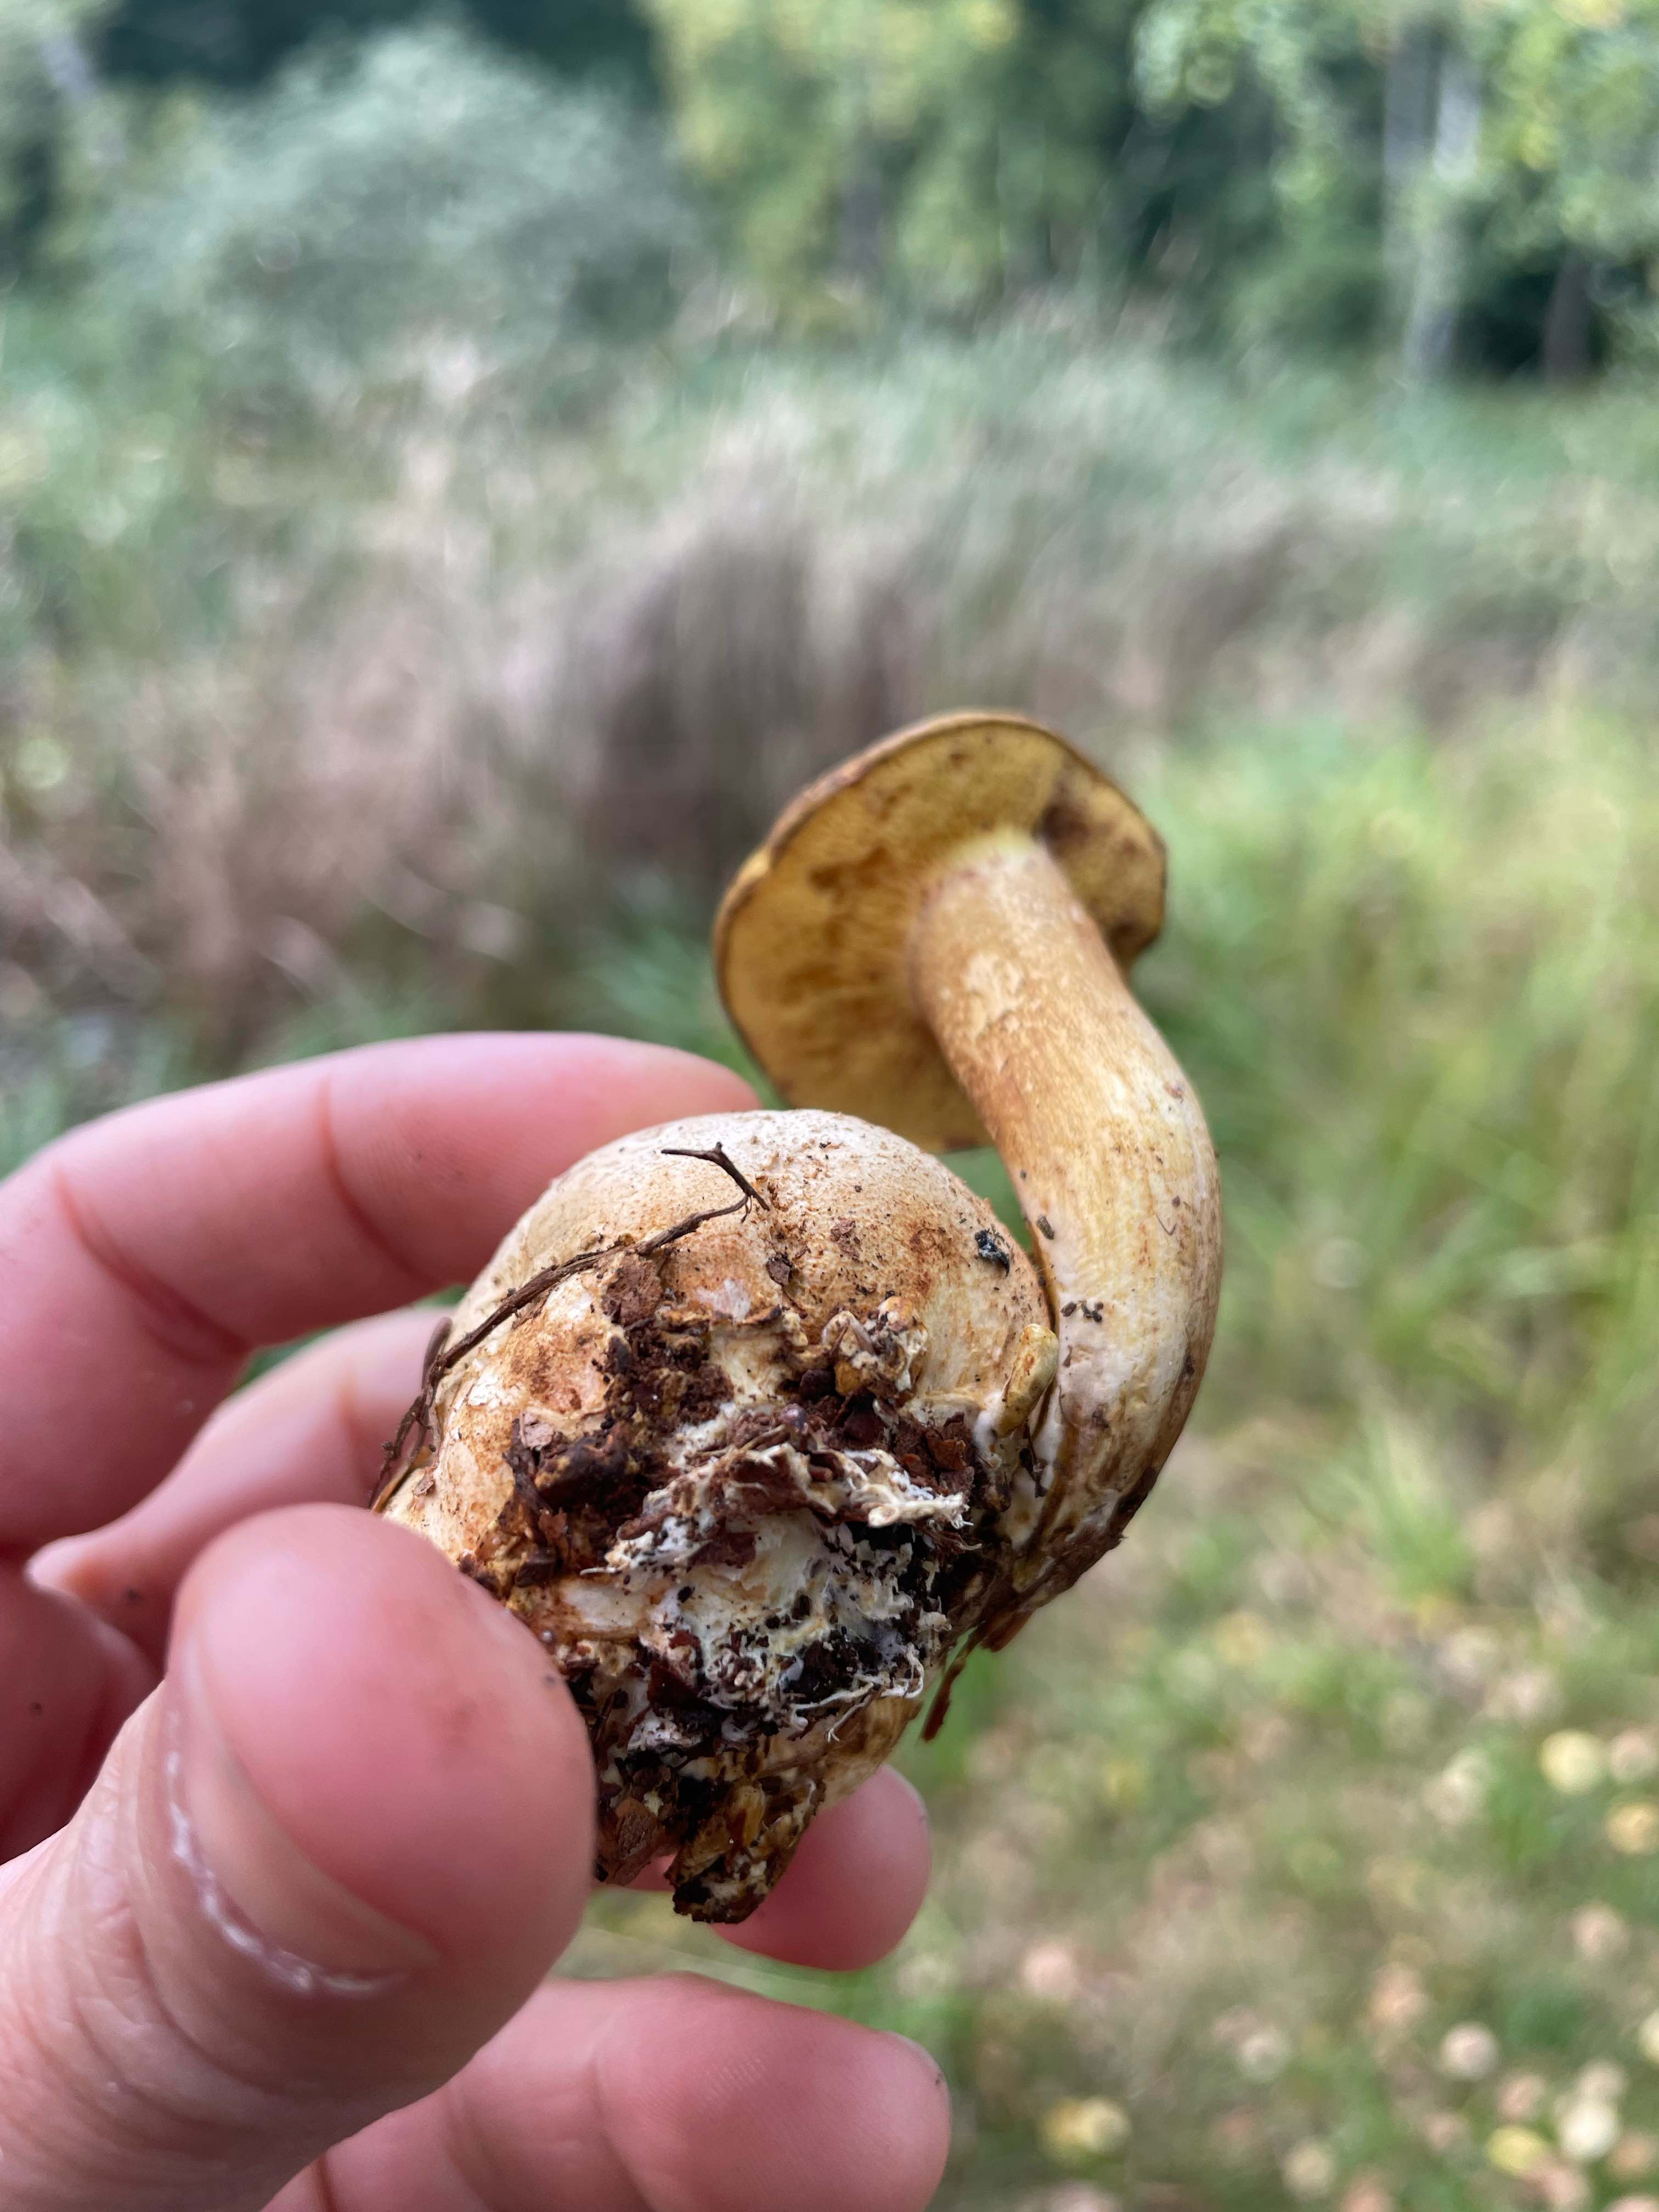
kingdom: Fungi
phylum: Basidiomycota
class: Agaricomycetes
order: Boletales
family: Boletaceae
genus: Pseudoboletus
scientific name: Pseudoboletus parasiticus
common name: snyltende rørhat
